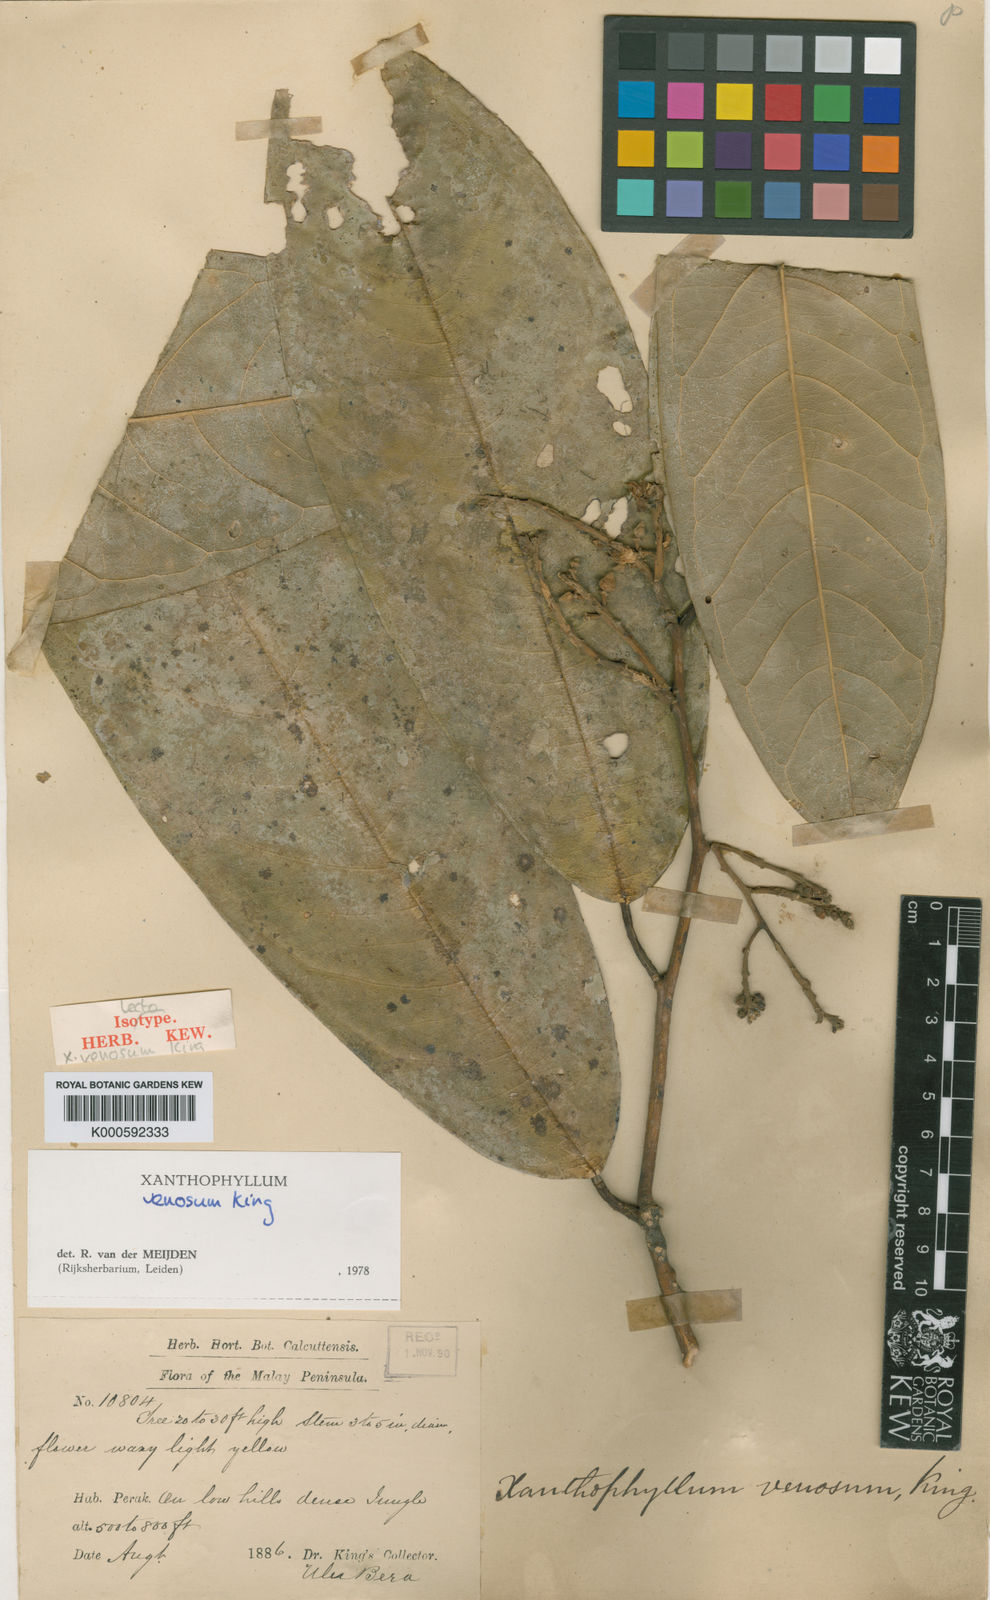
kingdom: Plantae
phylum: Tracheophyta
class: Magnoliopsida
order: Fabales
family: Polygalaceae
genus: Xanthophyllum
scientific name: Xanthophyllum venosum
